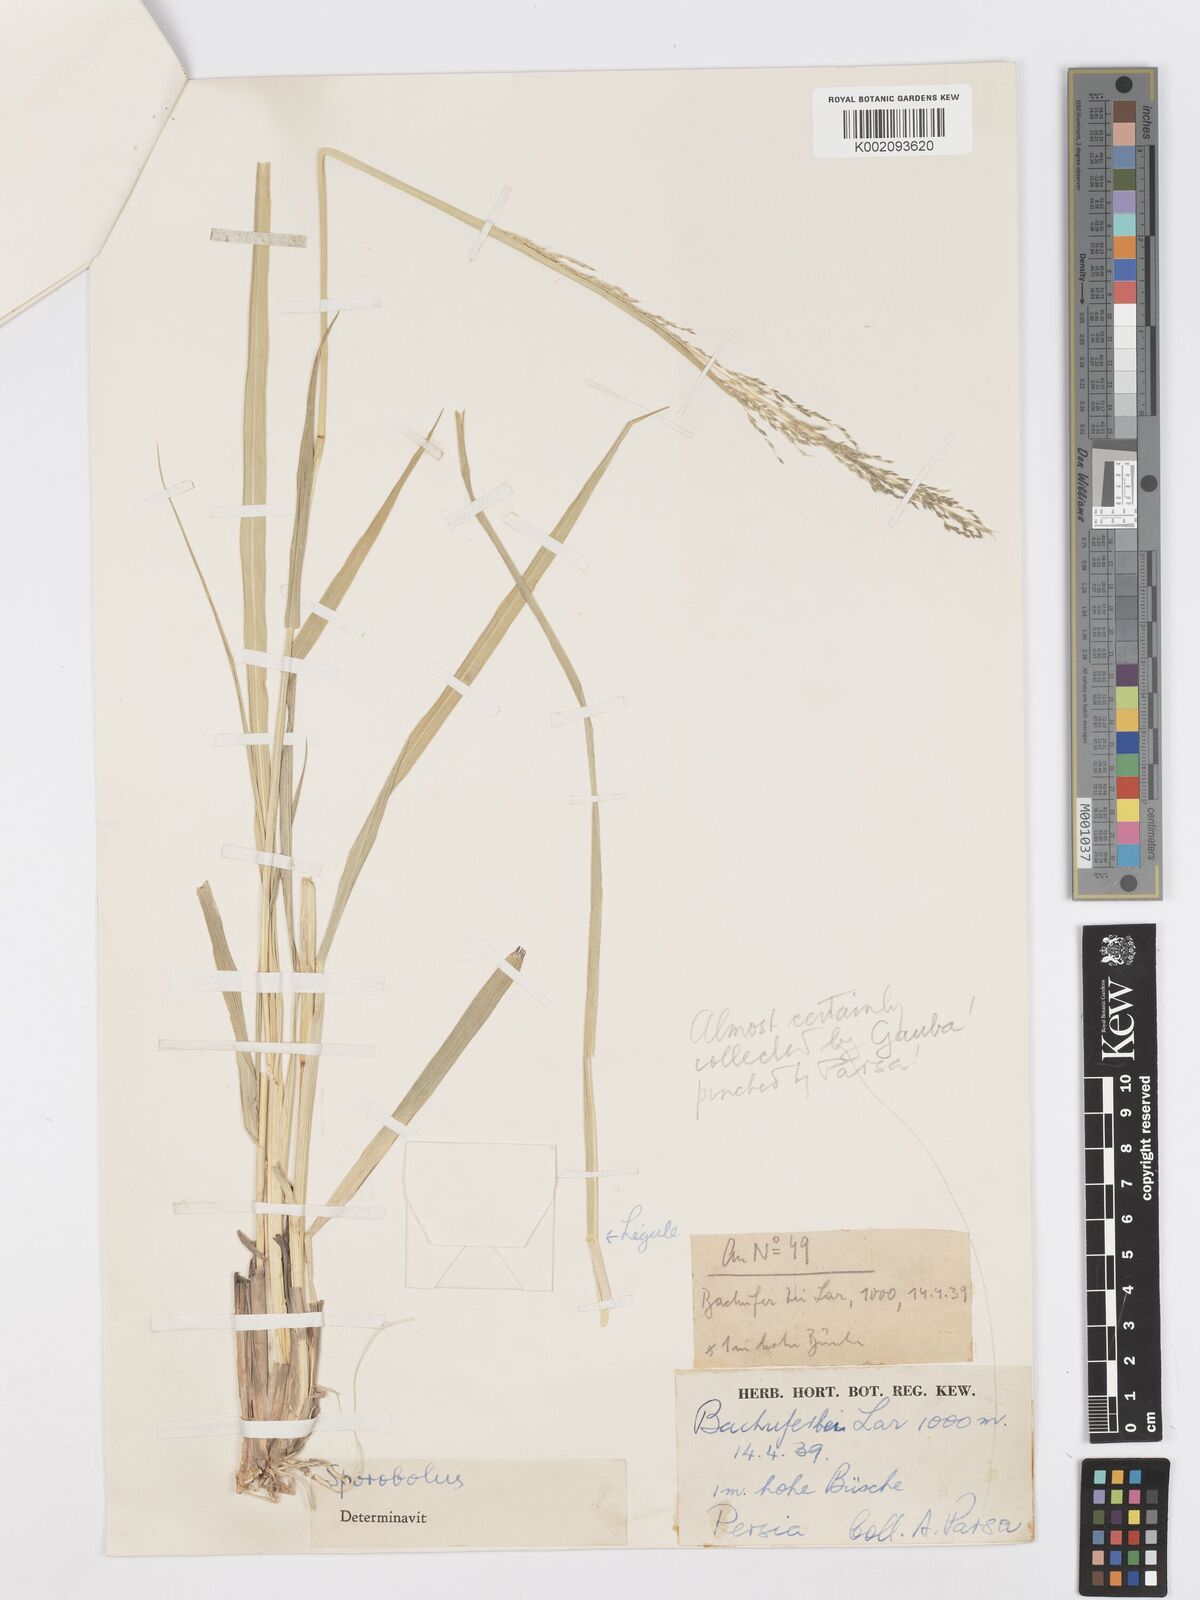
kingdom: Plantae
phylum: Tracheophyta
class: Liliopsida
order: Poales
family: Poaceae
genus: Sporobolus
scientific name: Sporobolus ioclados
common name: Pan dropseed
